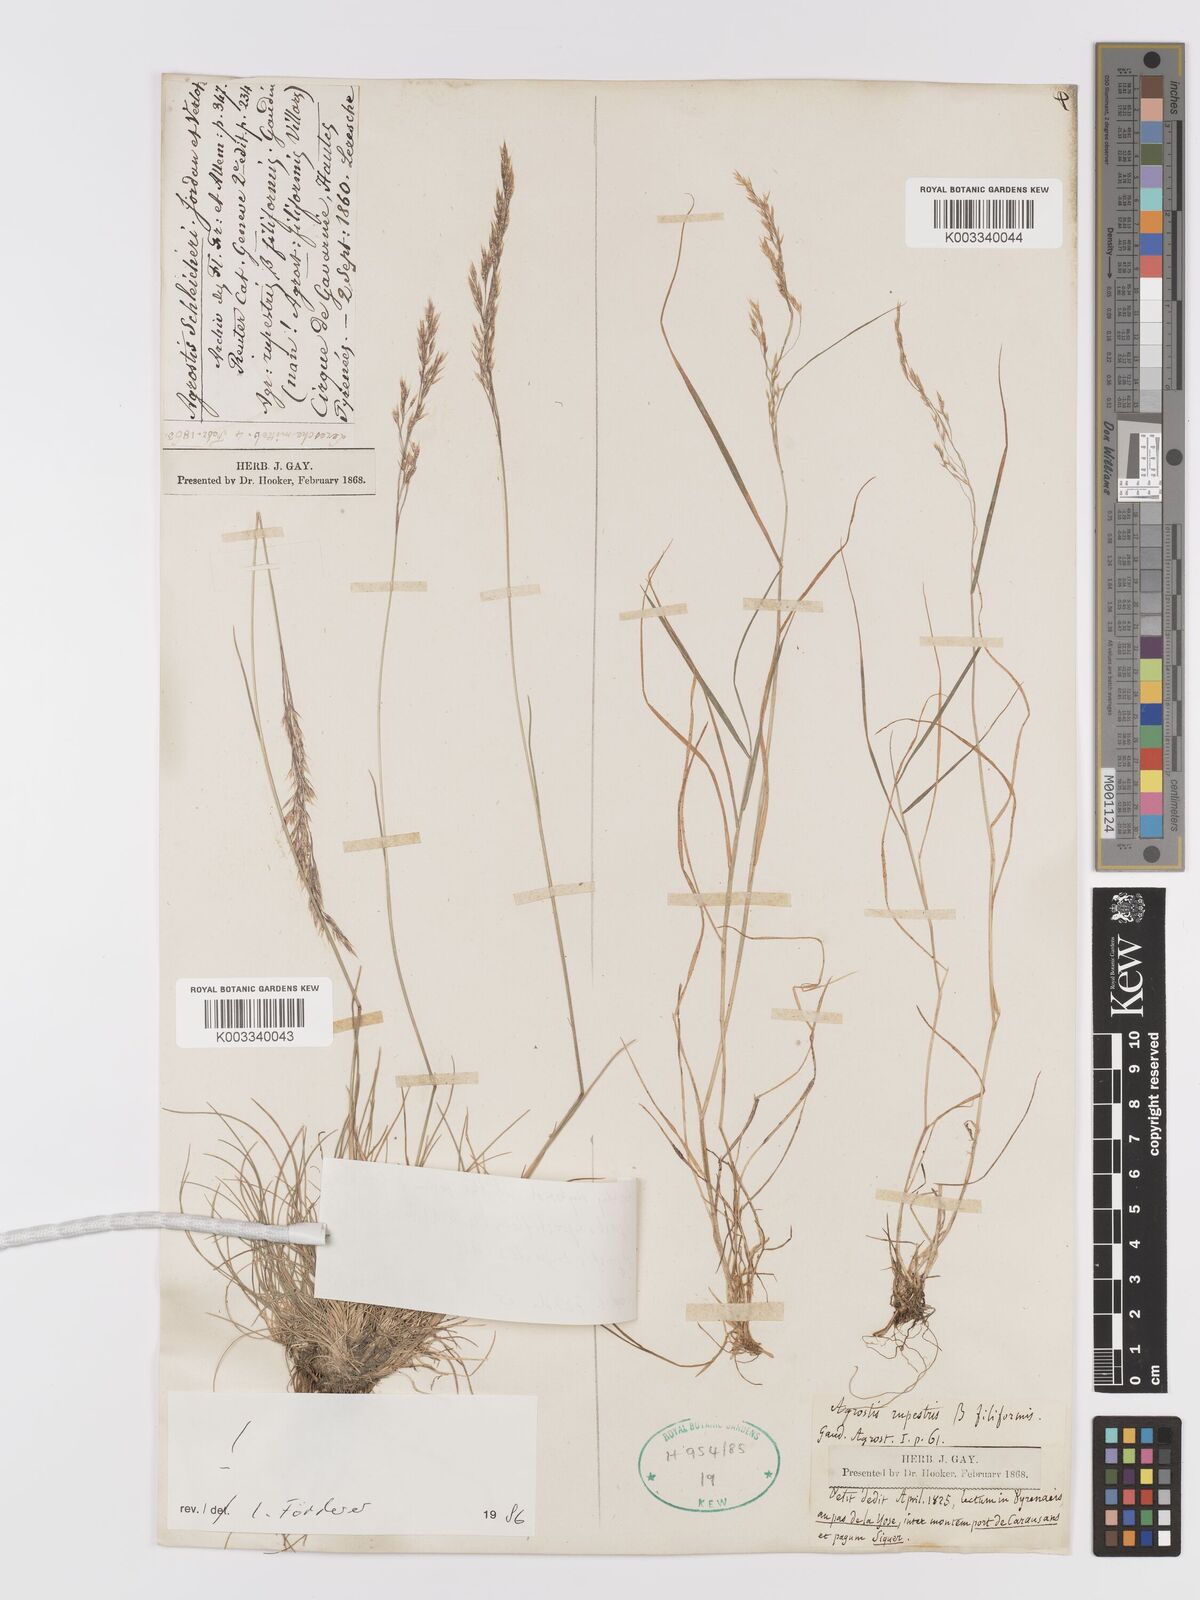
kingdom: Plantae
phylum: Tracheophyta
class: Liliopsida
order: Poales
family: Poaceae
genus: Alpagrostis
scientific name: Alpagrostis schleicheri
